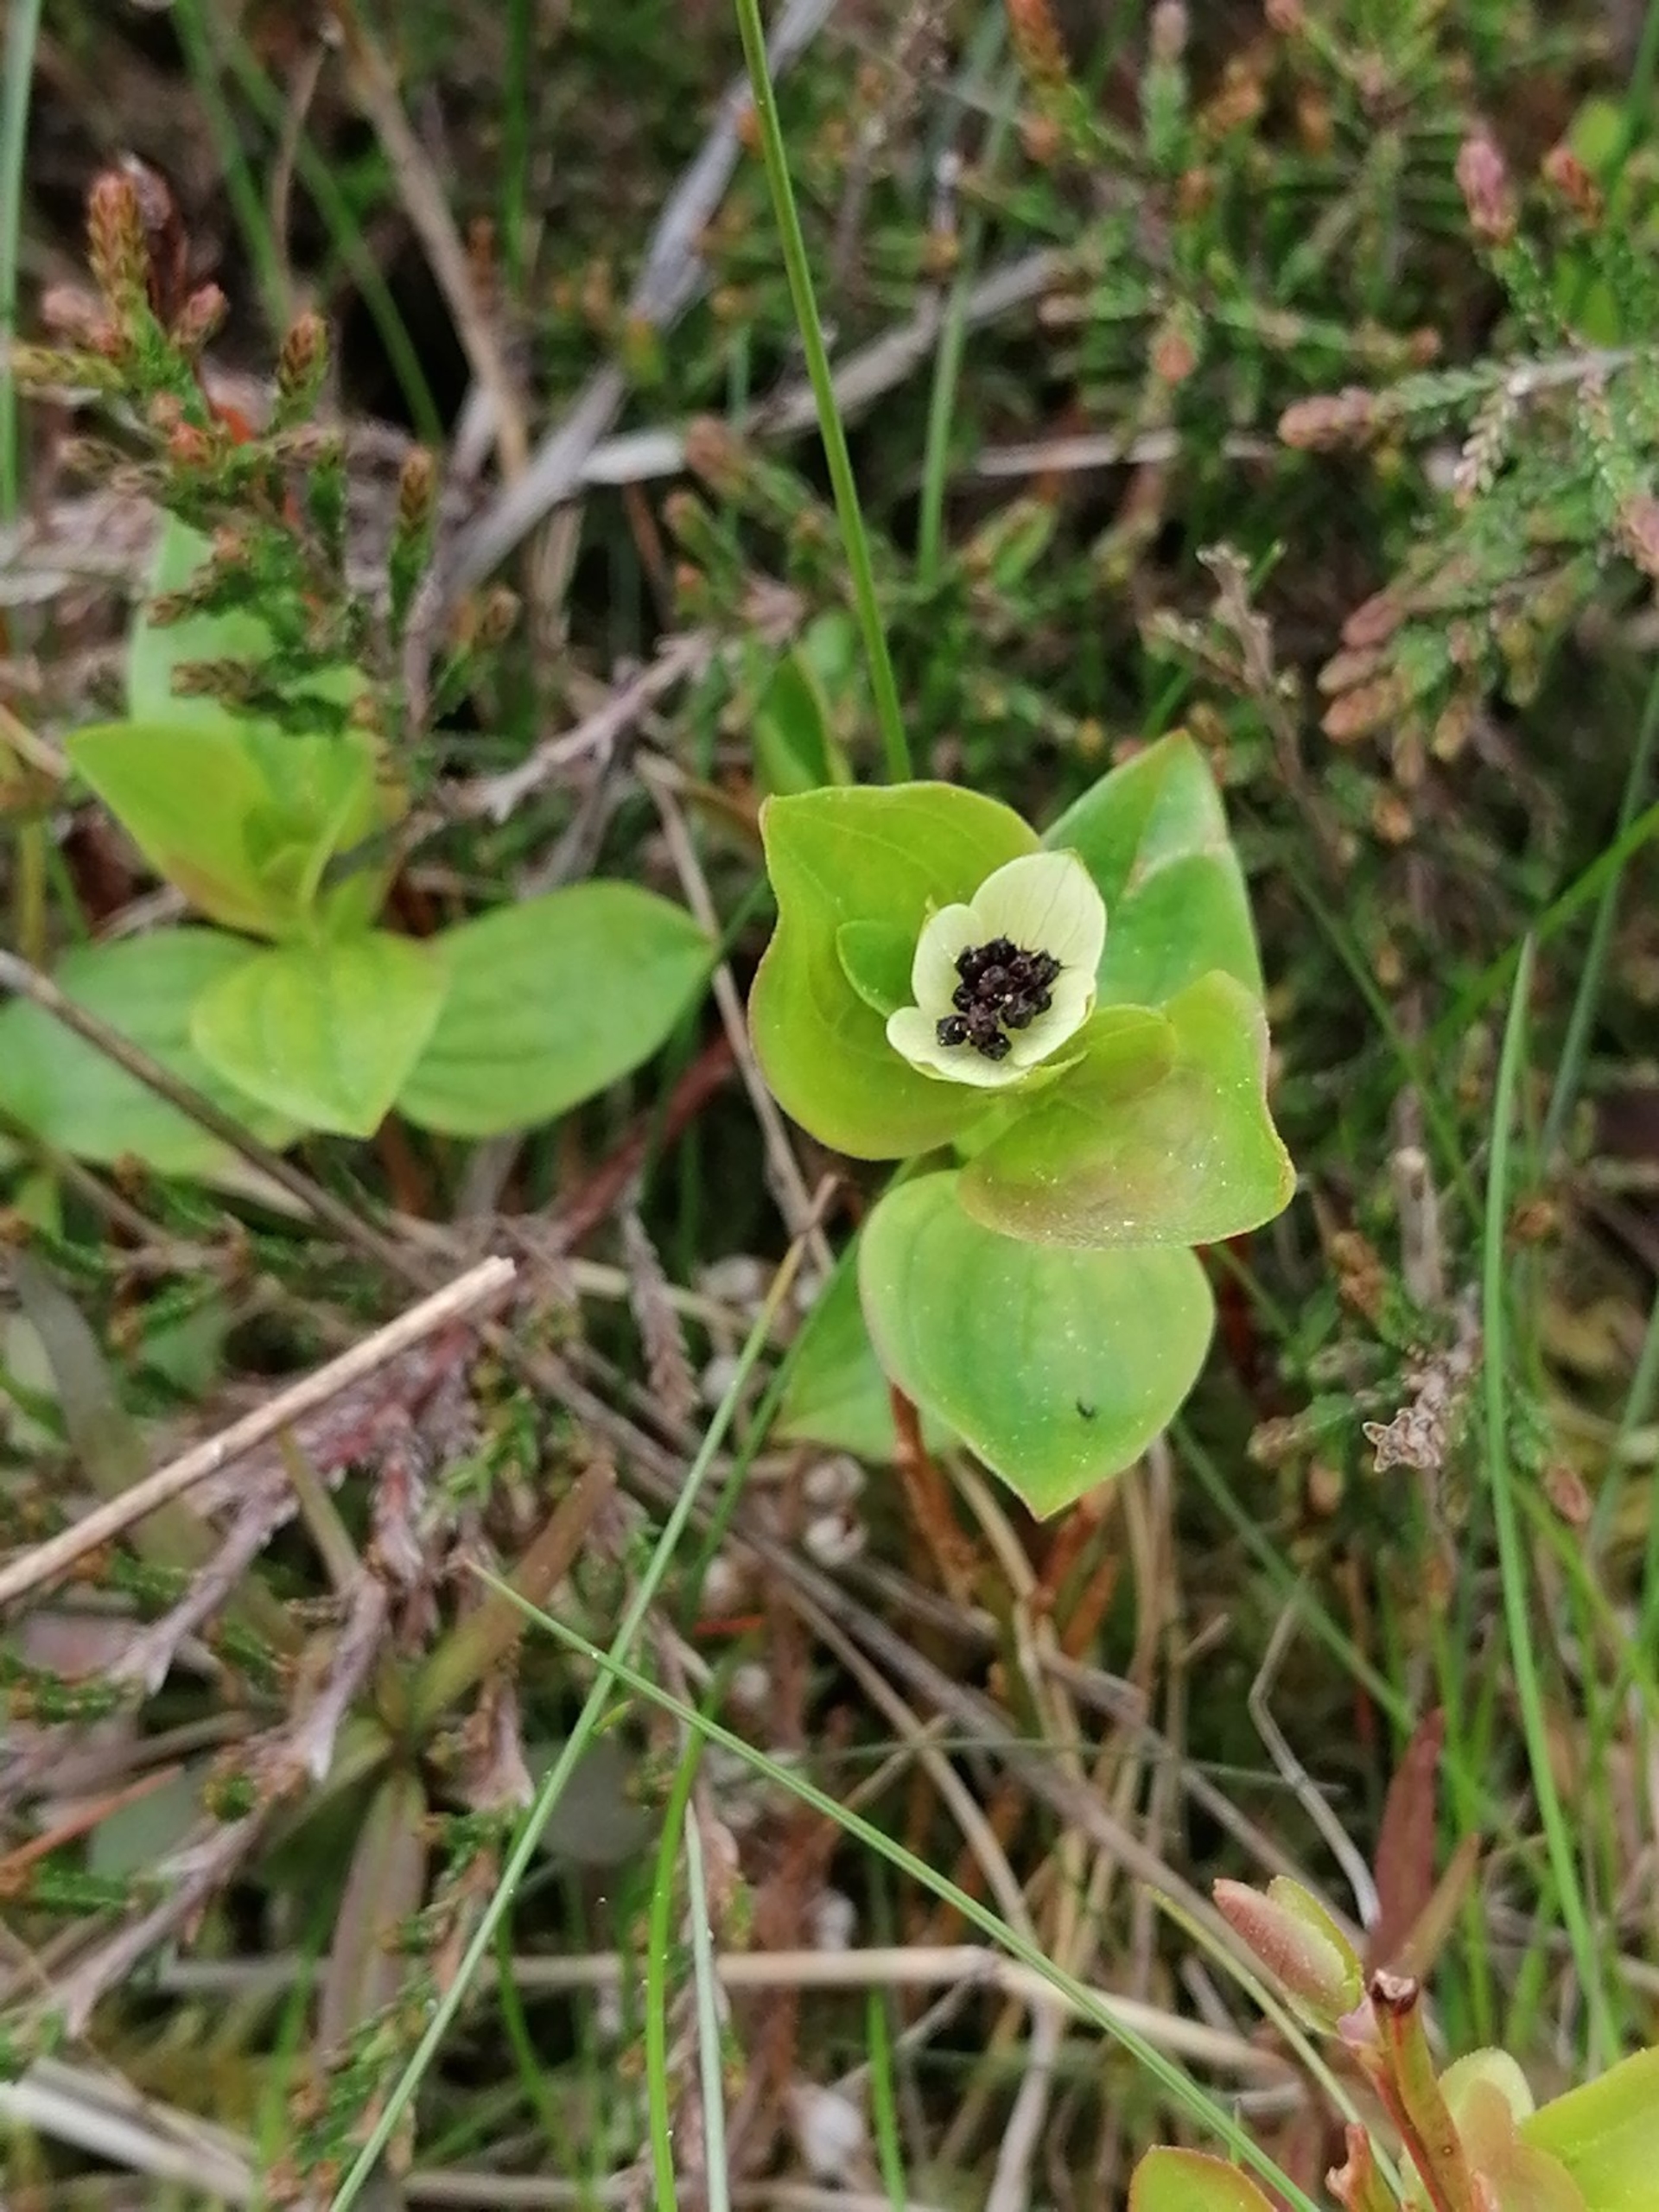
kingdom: Plantae
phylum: Tracheophyta
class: Magnoliopsida
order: Cornales
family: Cornaceae
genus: Cornus
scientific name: Cornus suecica
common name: Hønsebær
